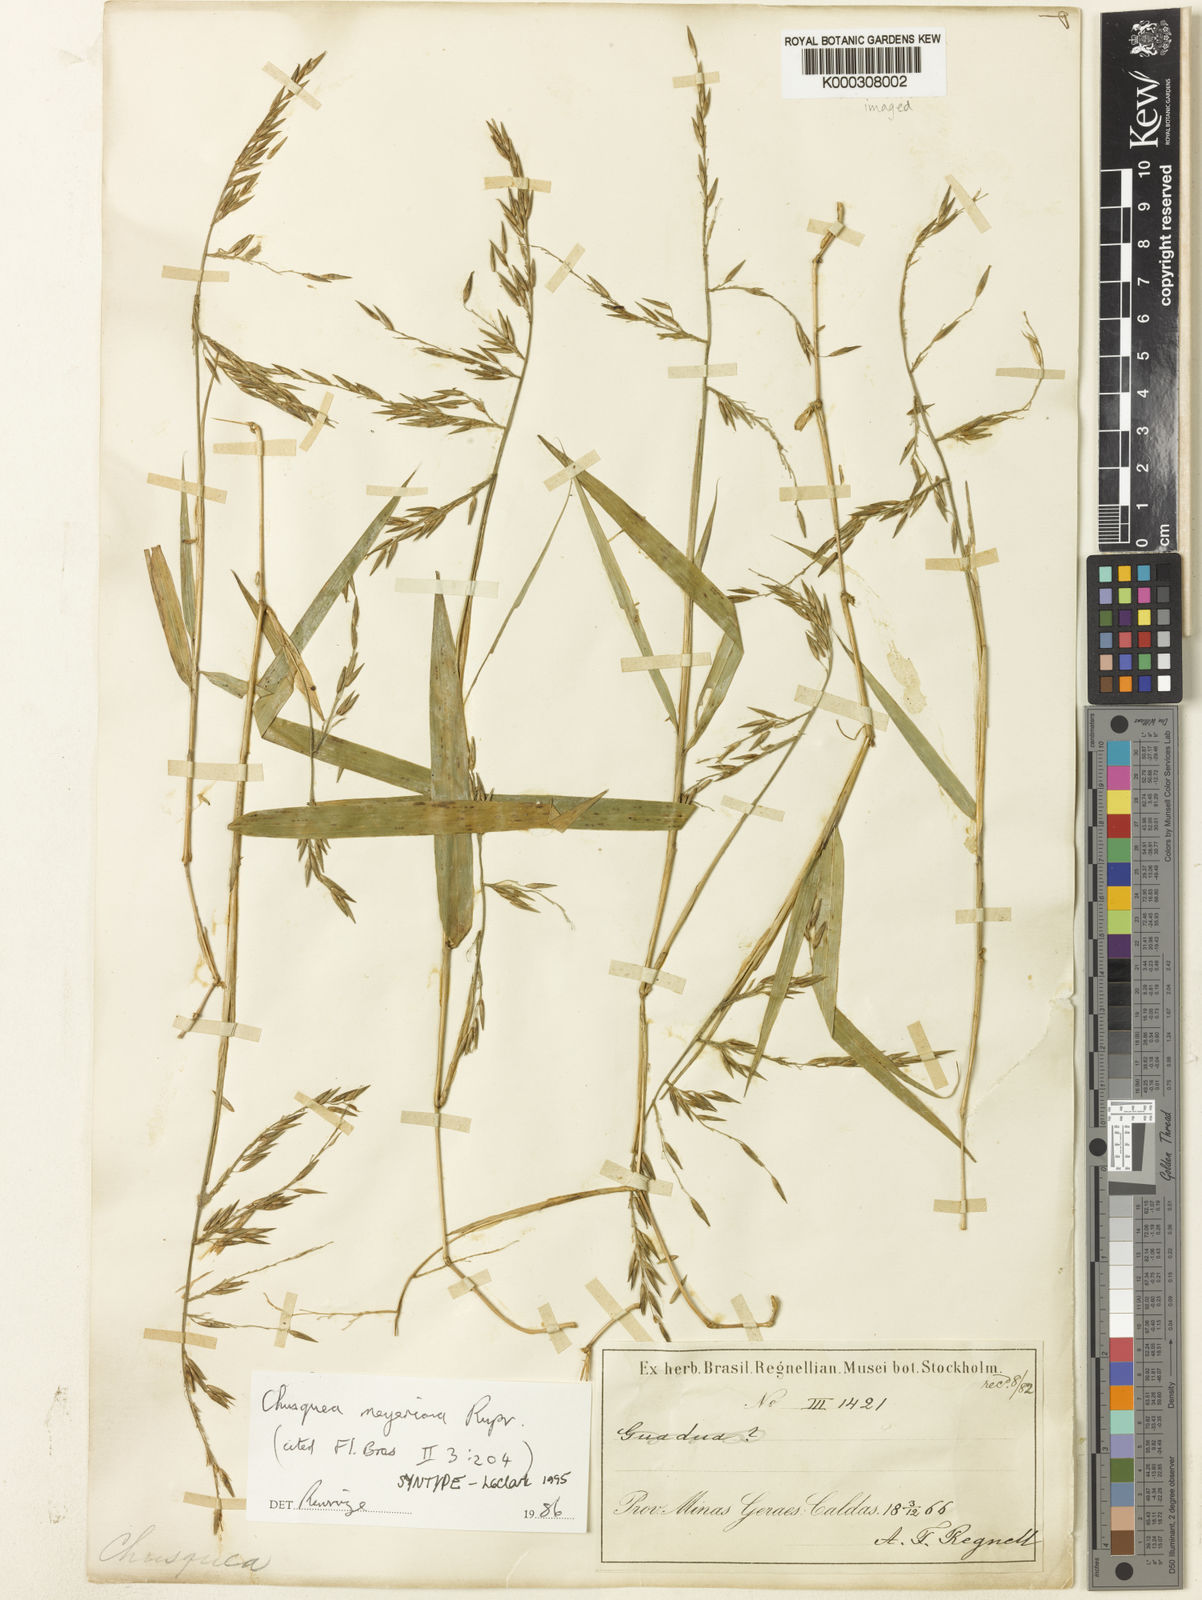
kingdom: Plantae
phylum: Tracheophyta
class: Liliopsida
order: Poales
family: Poaceae
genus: Chusquea
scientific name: Chusquea
